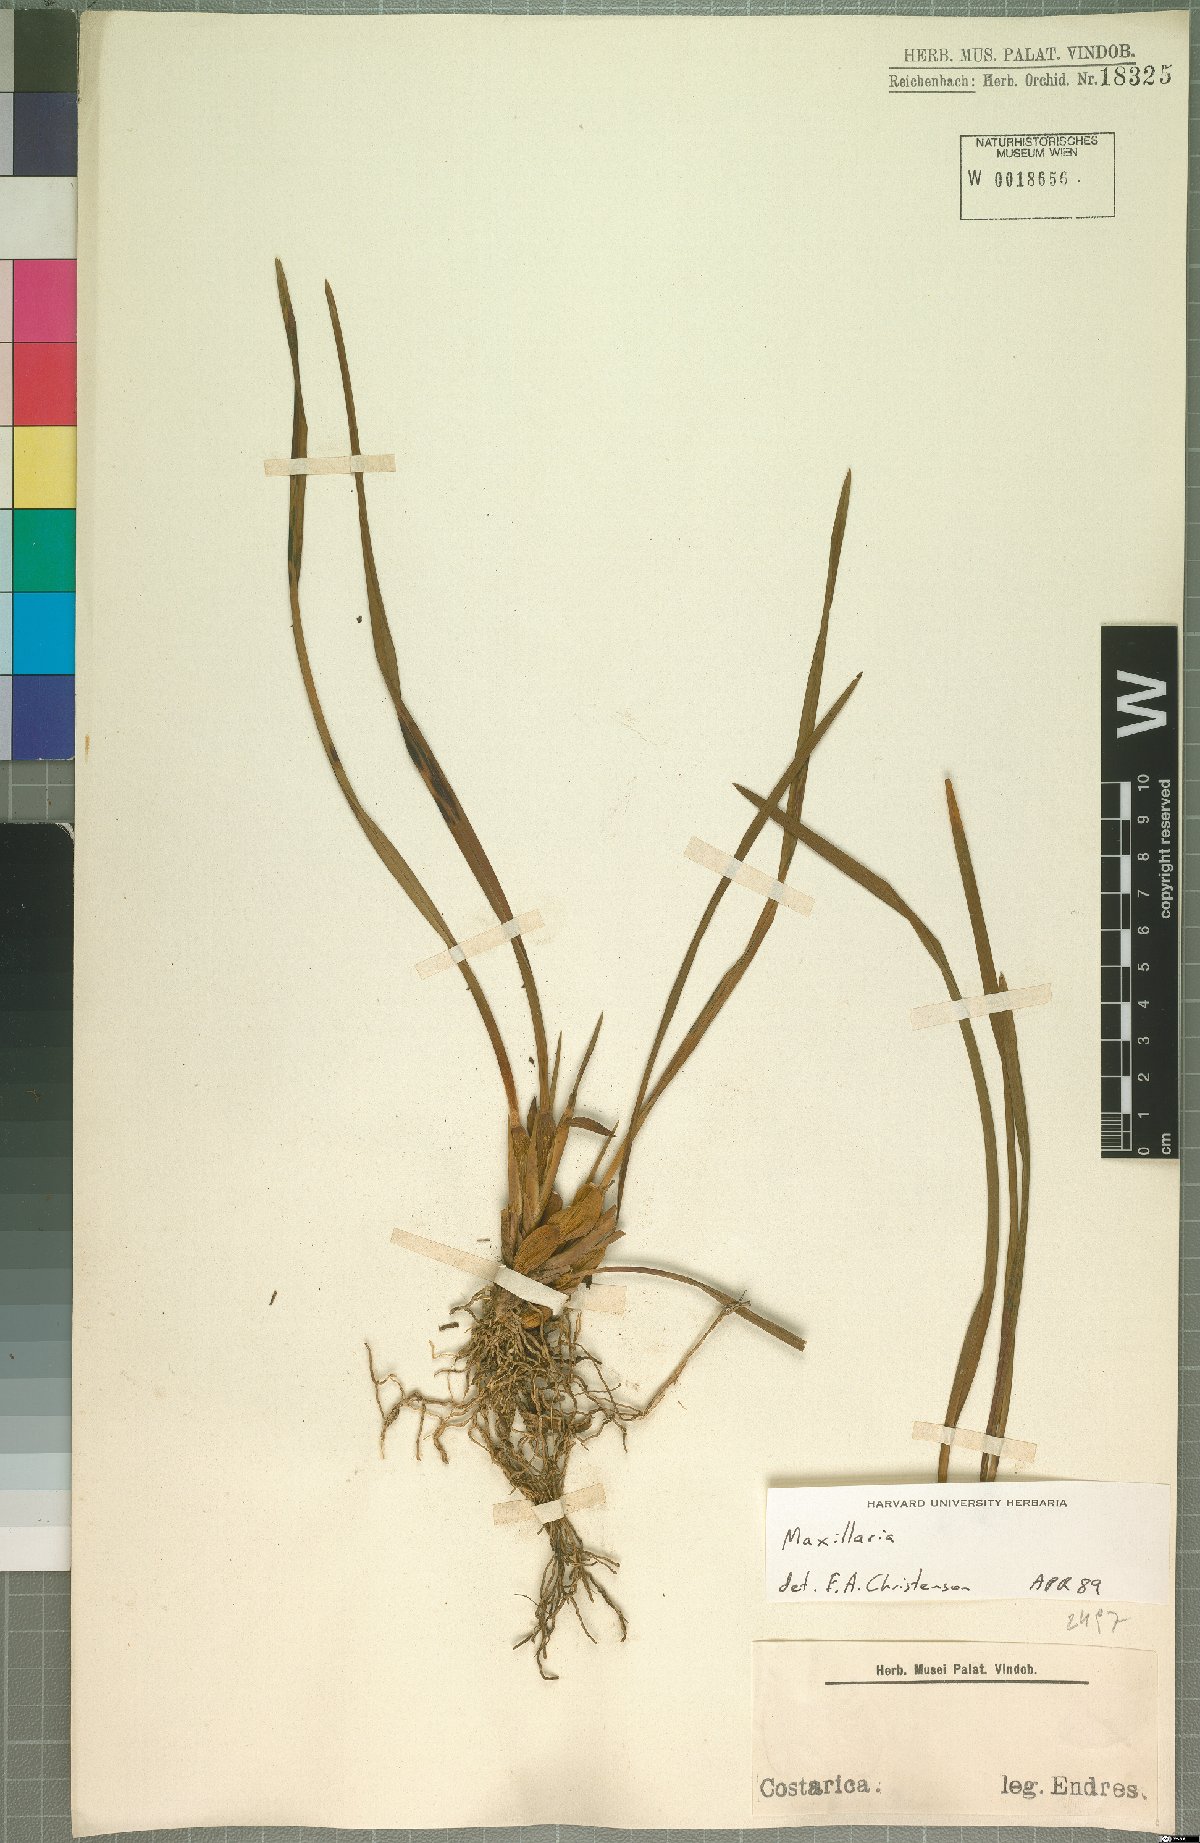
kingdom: Plantae
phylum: Tracheophyta
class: Liliopsida
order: Asparagales
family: Orchidaceae
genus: Maxillaria
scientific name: Maxillaria
